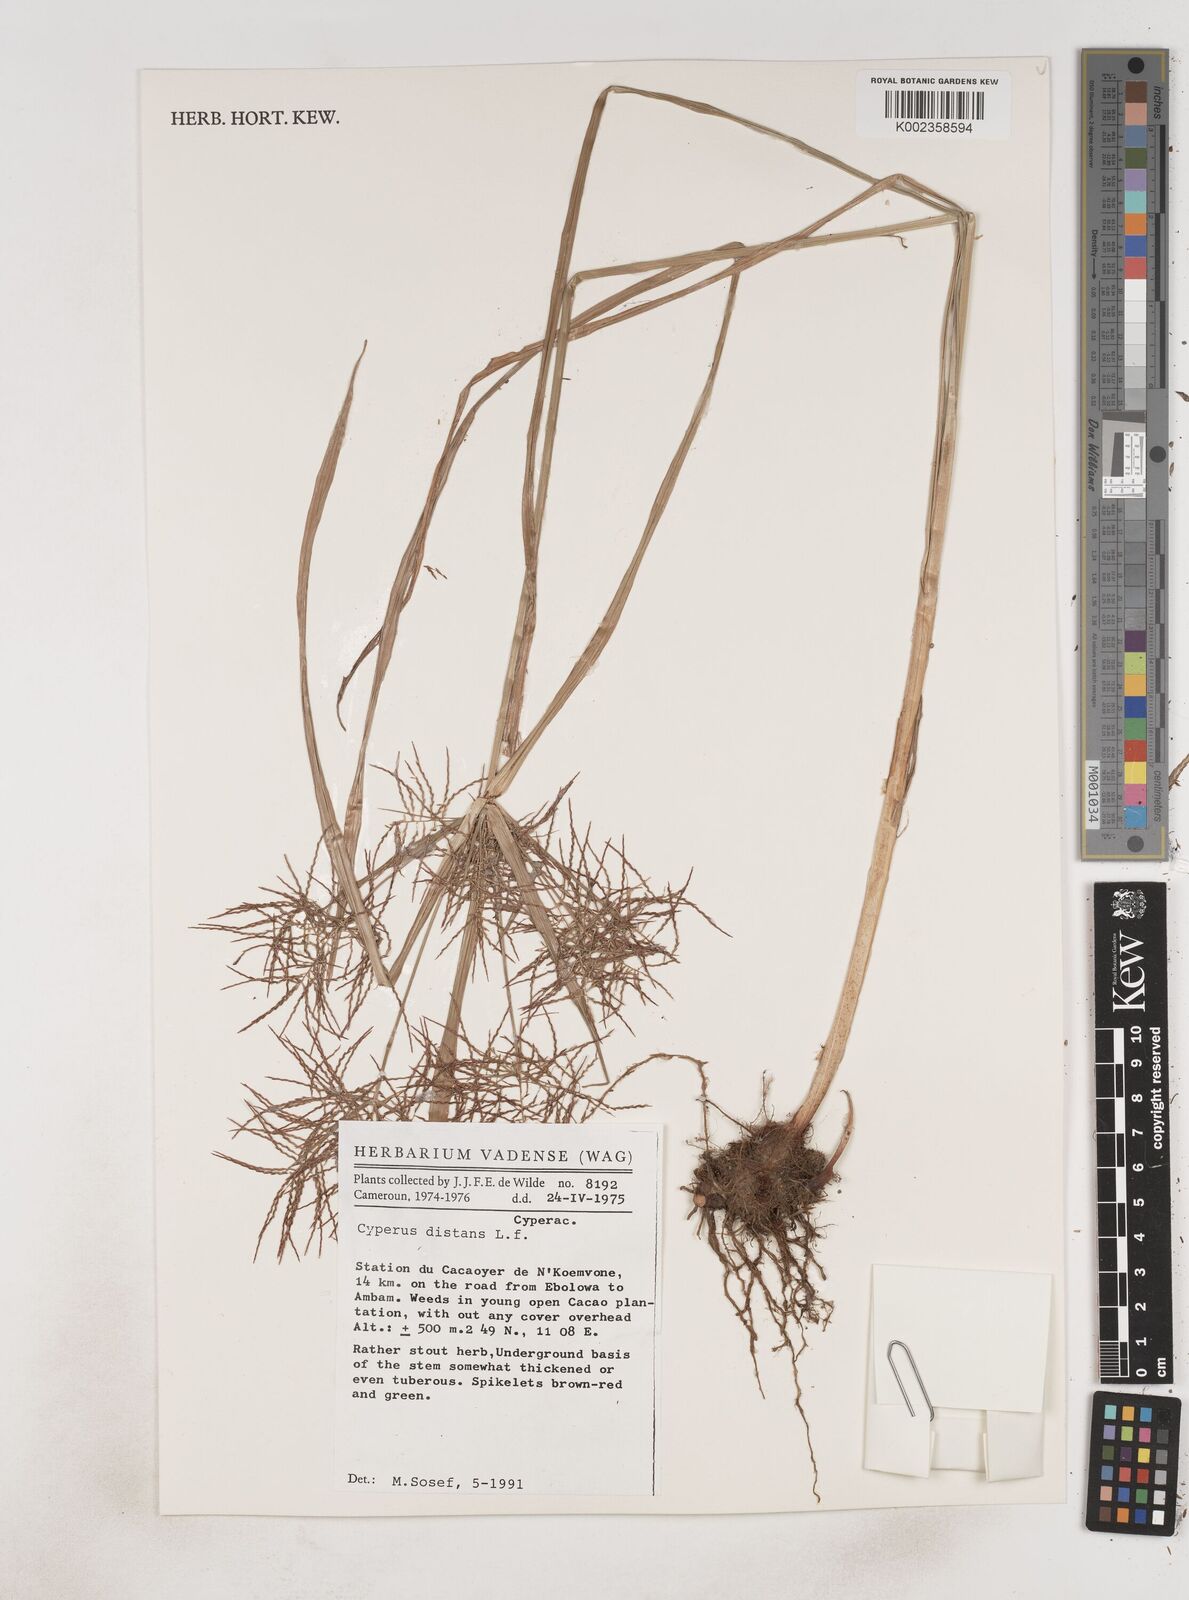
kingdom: Plantae
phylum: Tracheophyta
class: Liliopsida
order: Poales
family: Cyperaceae
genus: Cyperus
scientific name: Cyperus distans
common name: Slender cyperus
